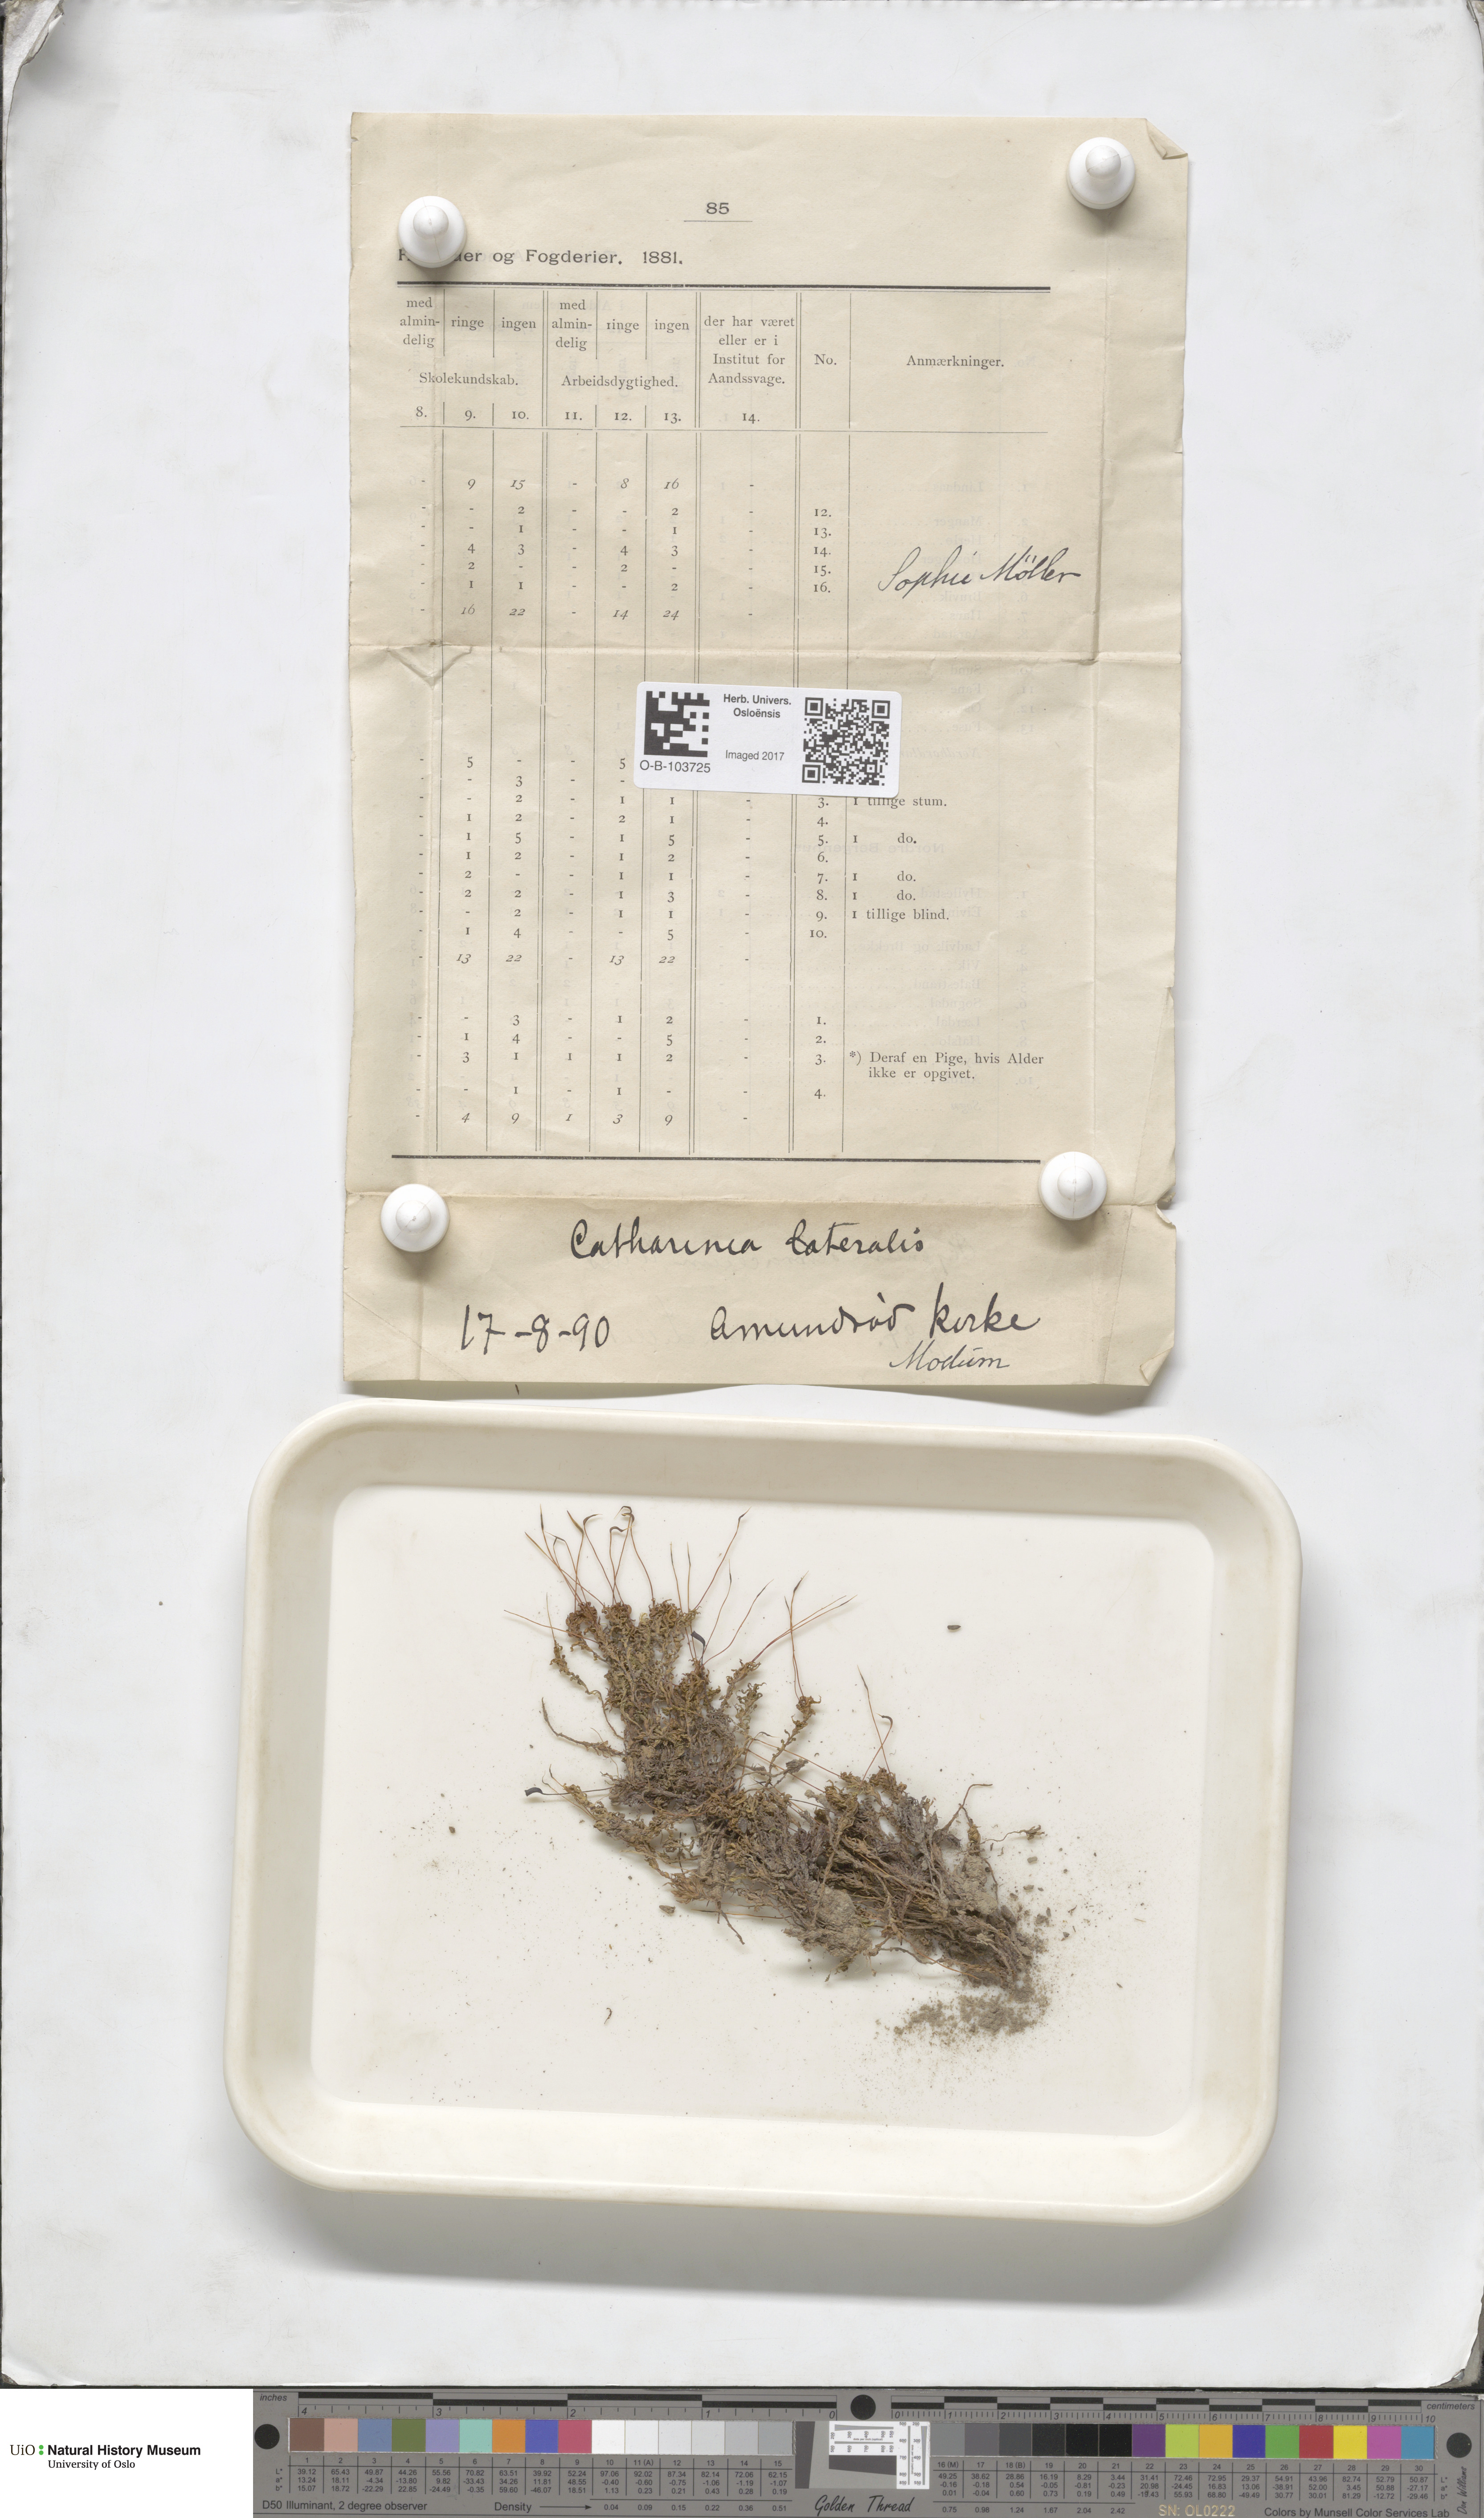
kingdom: Plantae
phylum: Bryophyta
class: Polytrichopsida
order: Polytrichales
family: Polytrichaceae
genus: Atrichum
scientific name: Atrichum
